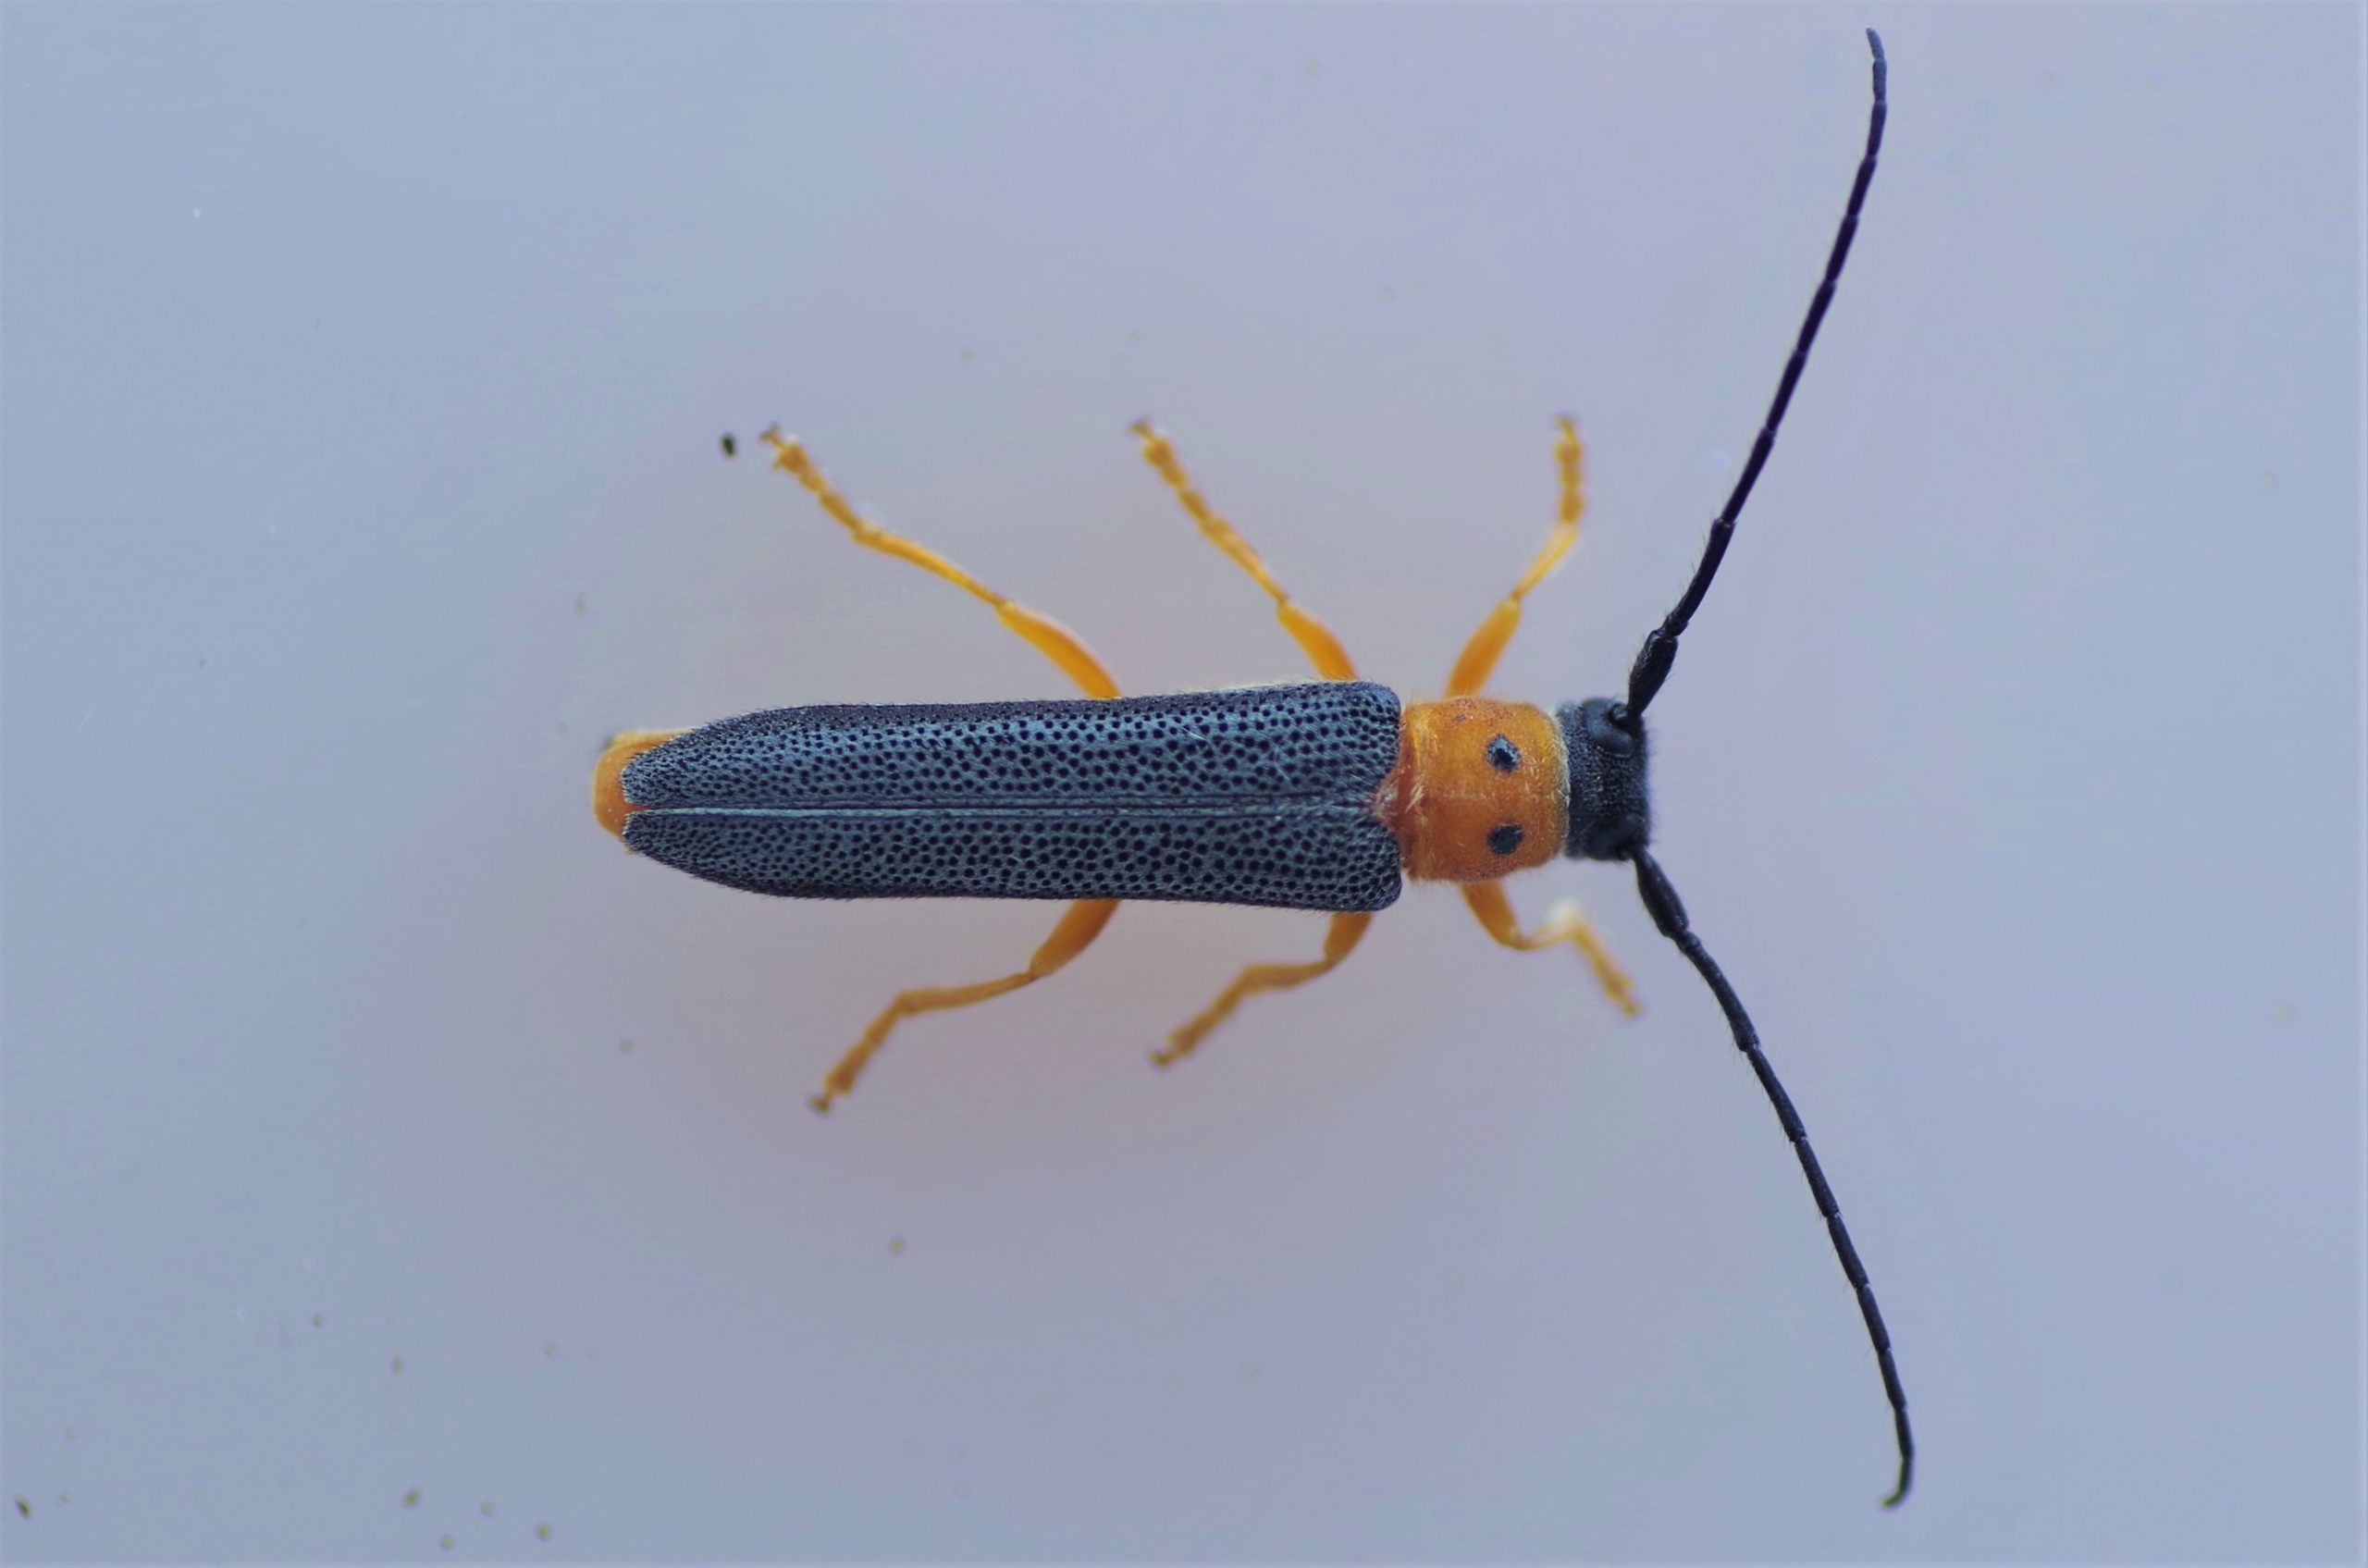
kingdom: Animalia
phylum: Arthropoda
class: Insecta
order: Coleoptera
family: Cerambycidae
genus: Oberea
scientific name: Oberea oculata
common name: Pilebuk
